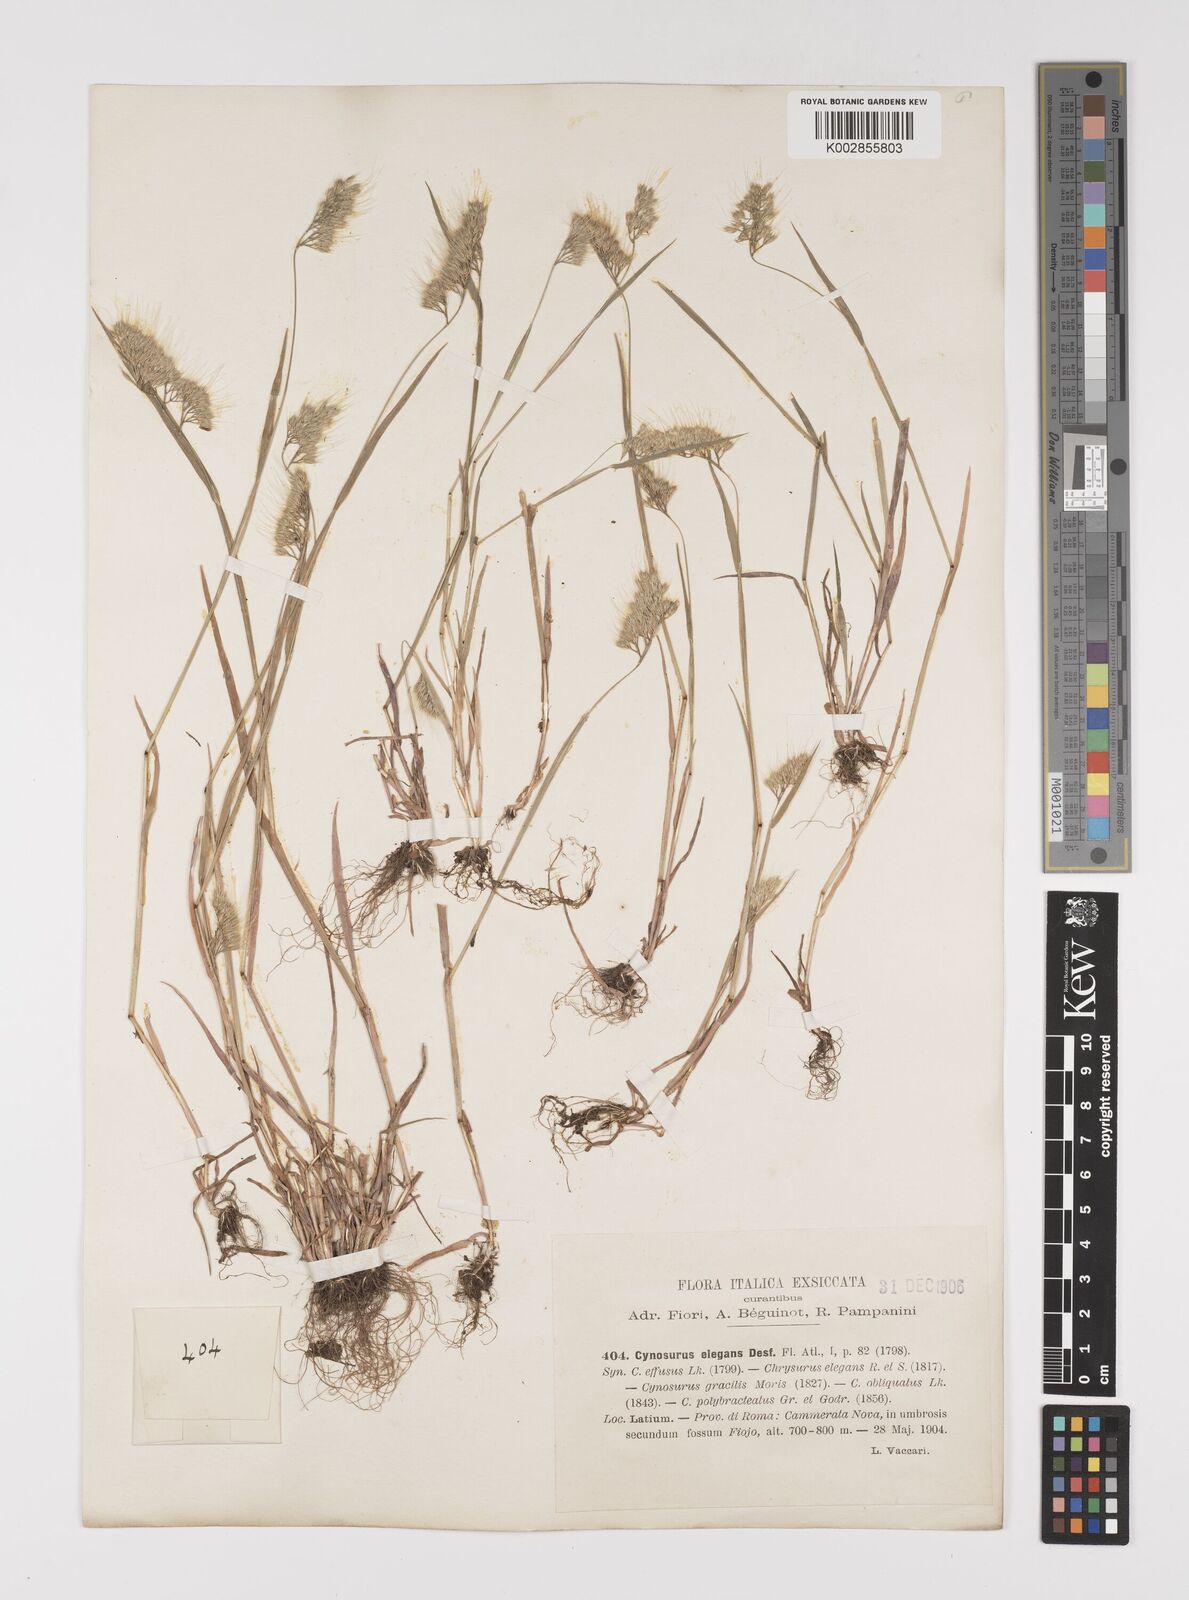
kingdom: Plantae
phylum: Tracheophyta
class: Liliopsida
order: Poales
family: Poaceae
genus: Cynosurus
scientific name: Cynosurus elegans
